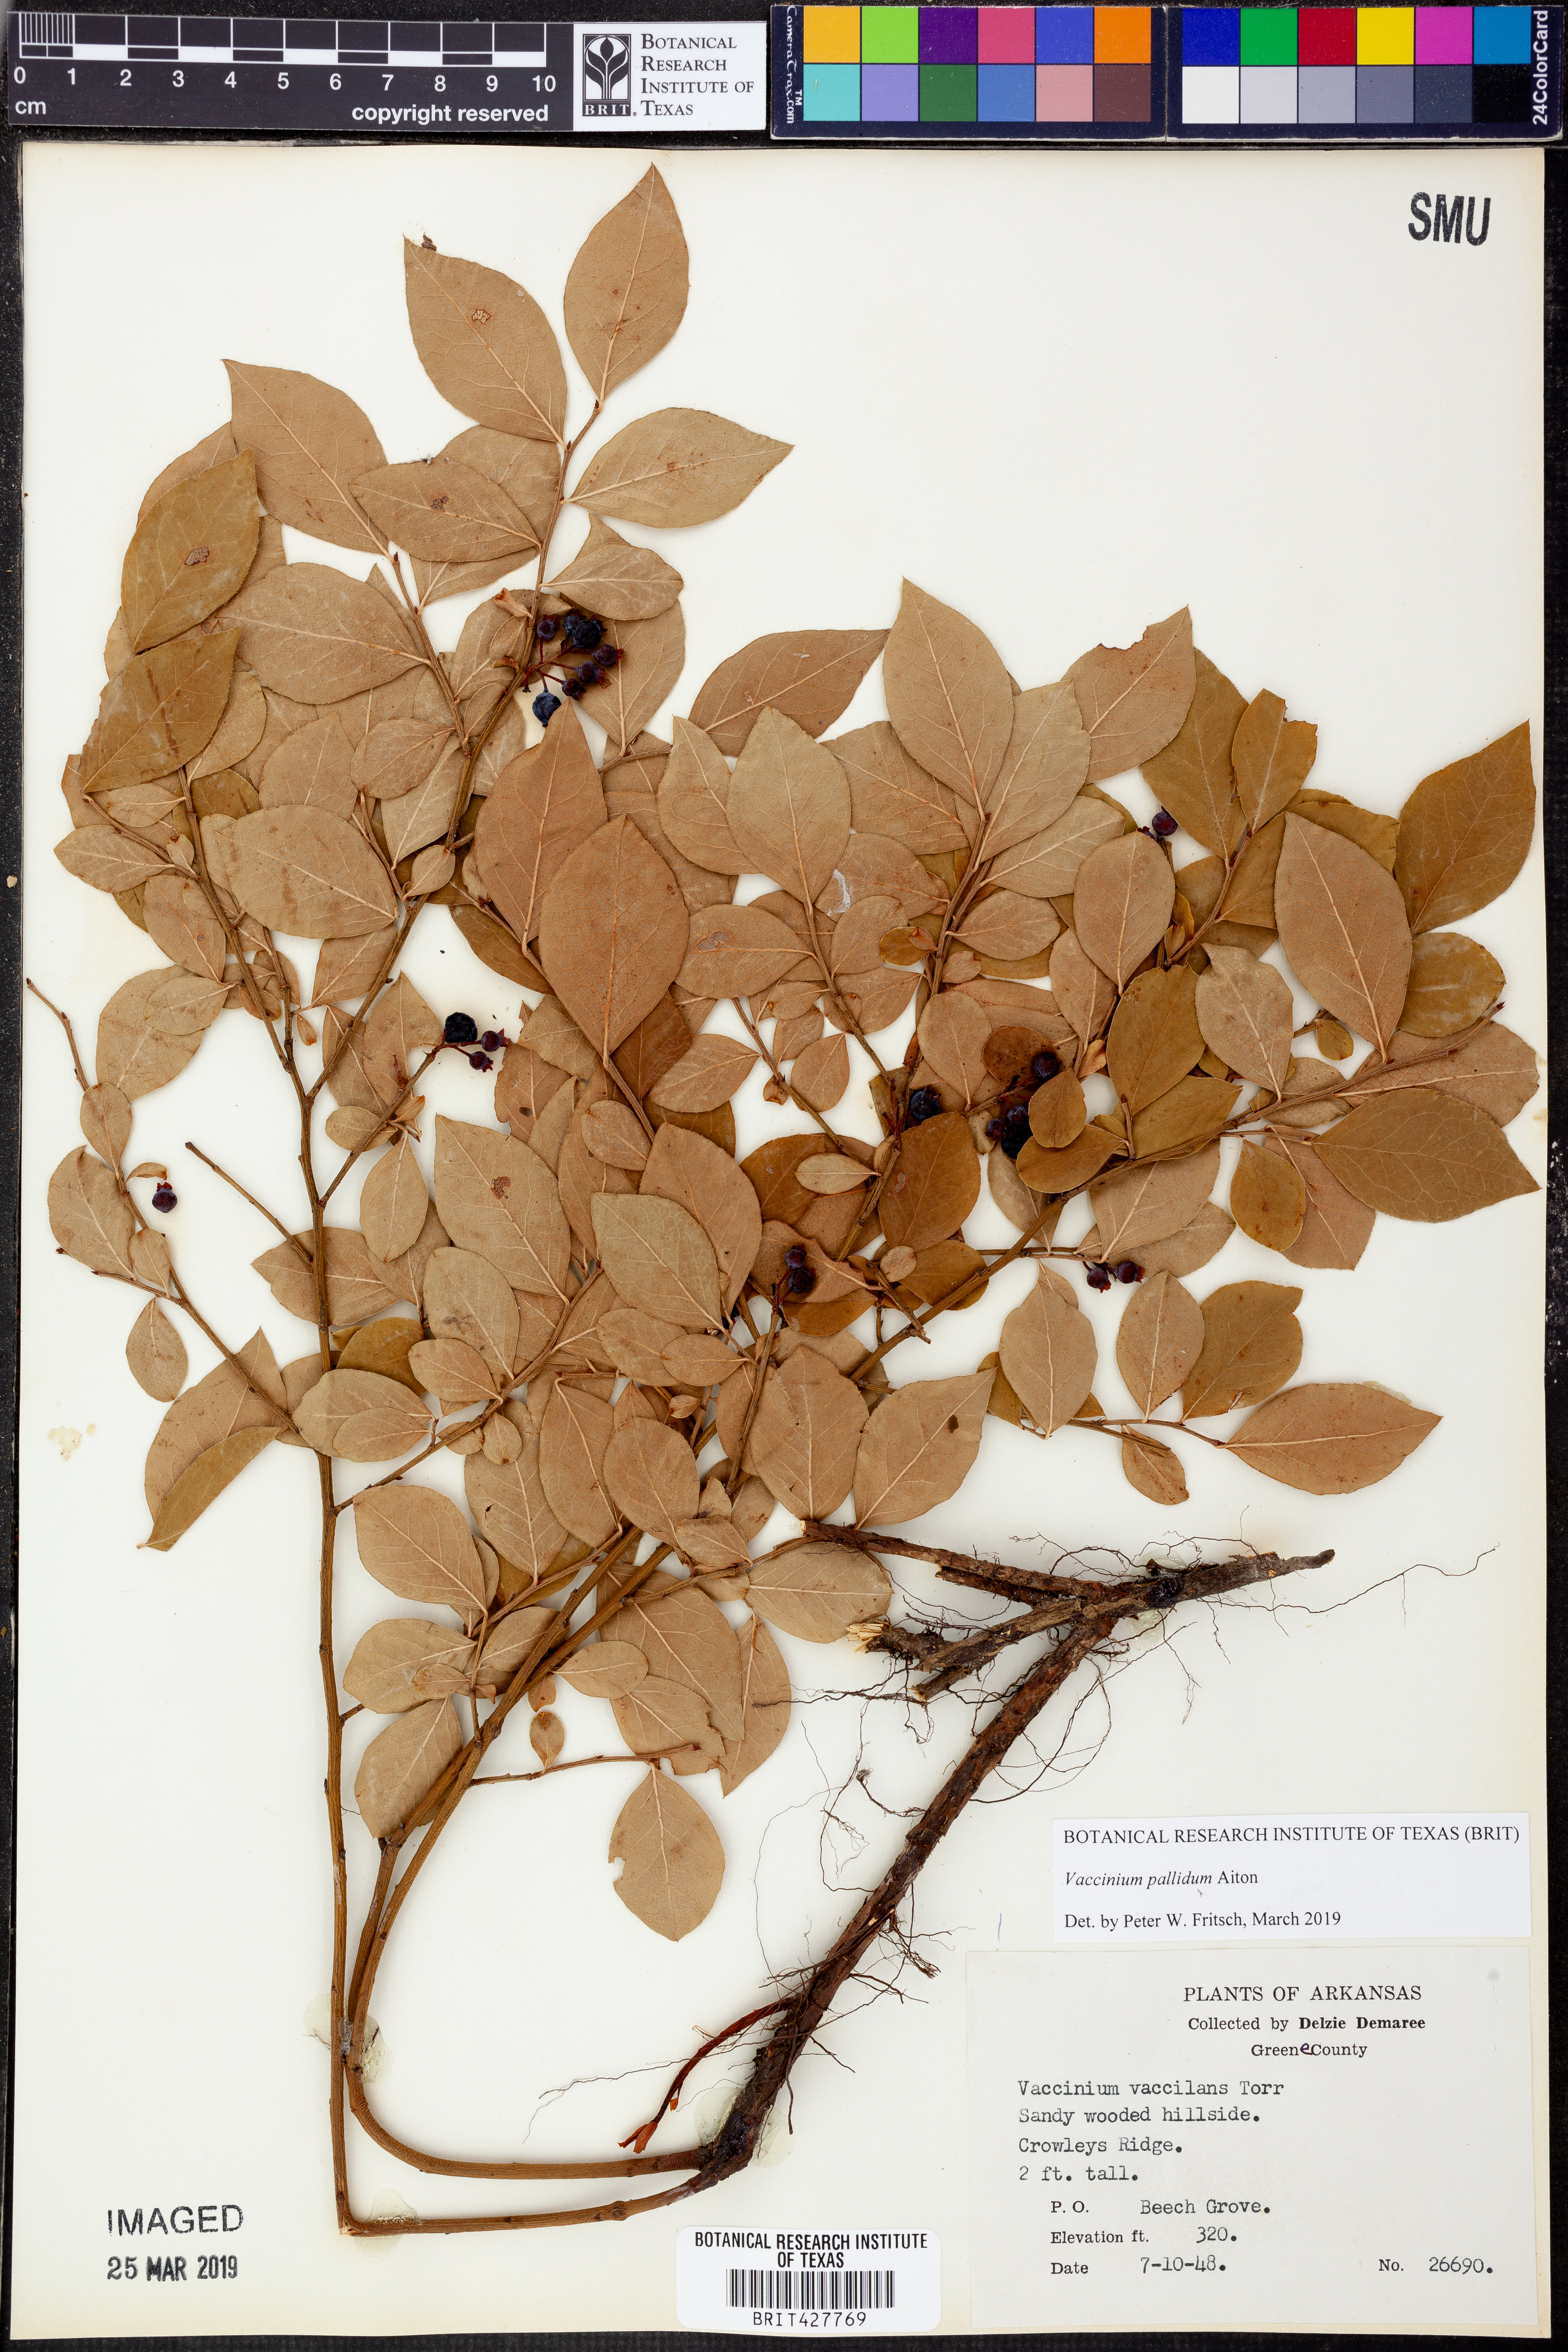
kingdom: Plantae
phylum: Tracheophyta
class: Magnoliopsida
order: Ericales
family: Ericaceae
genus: Vaccinium
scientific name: Vaccinium pallidum
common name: Blue ridge blueberry
